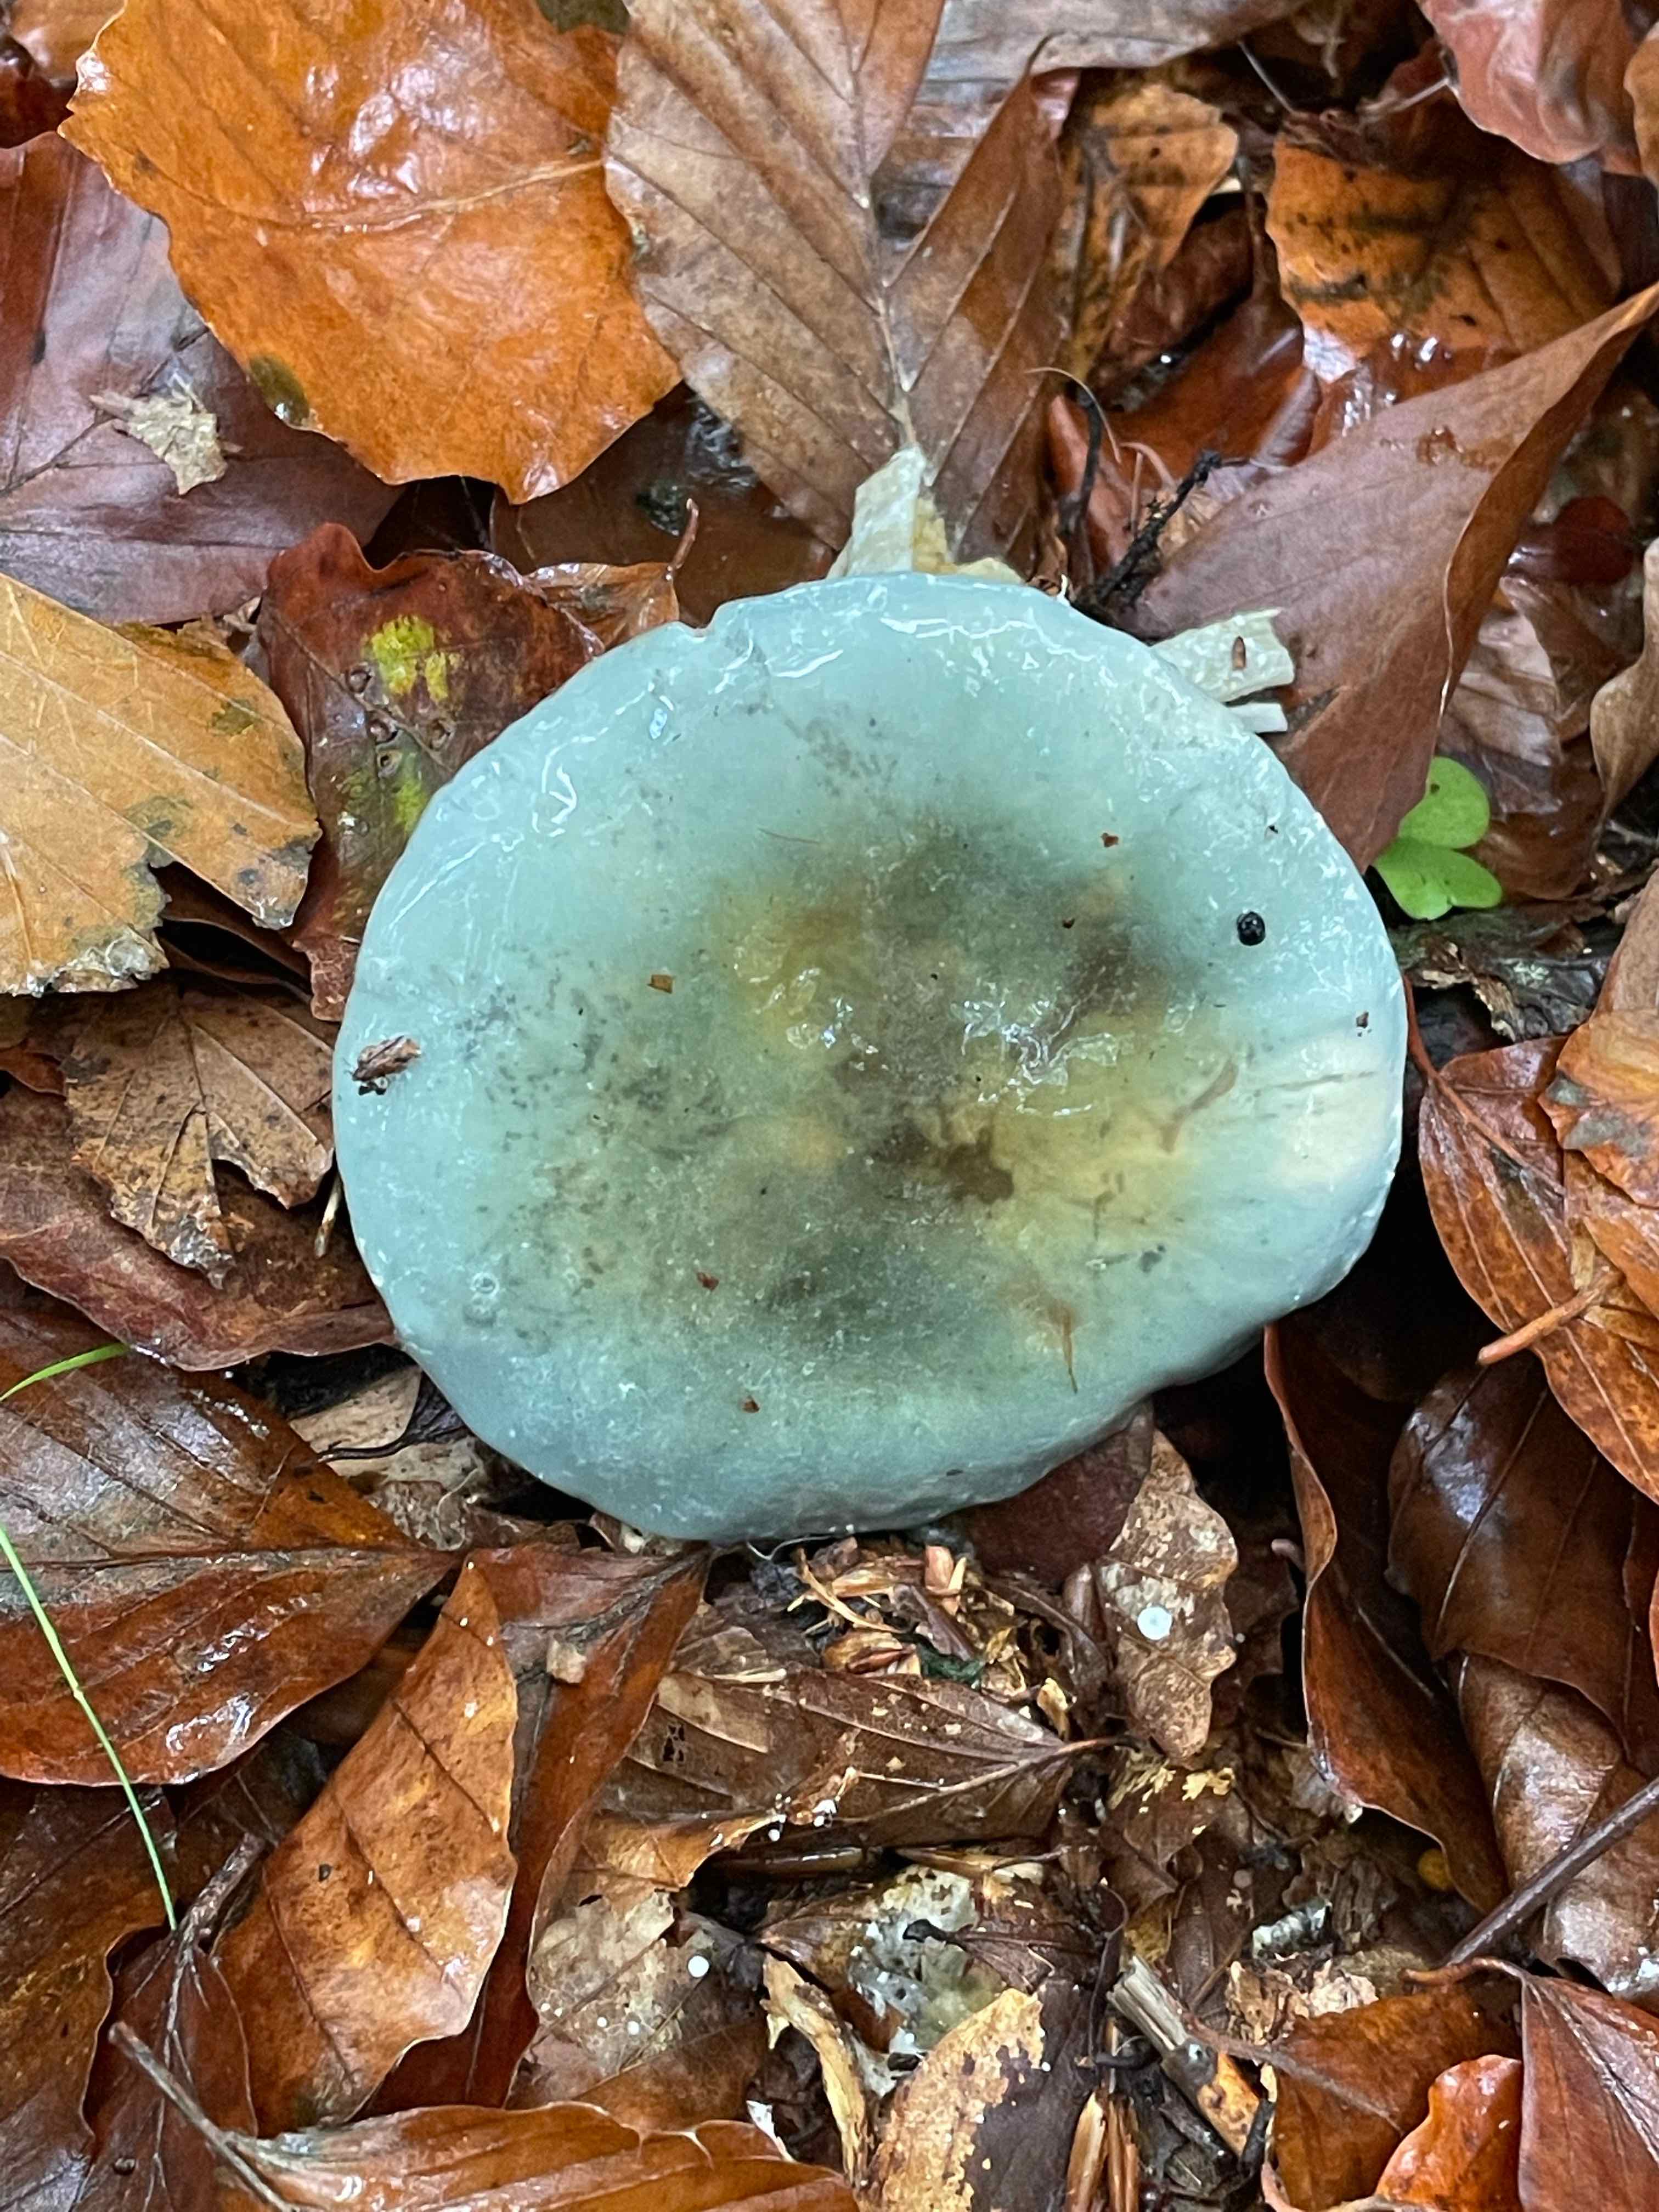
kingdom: Fungi
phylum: Basidiomycota
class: Agaricomycetes
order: Agaricales
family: Strophariaceae
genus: Stropharia
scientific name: Stropharia cyanea
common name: blågrøn bredblad
